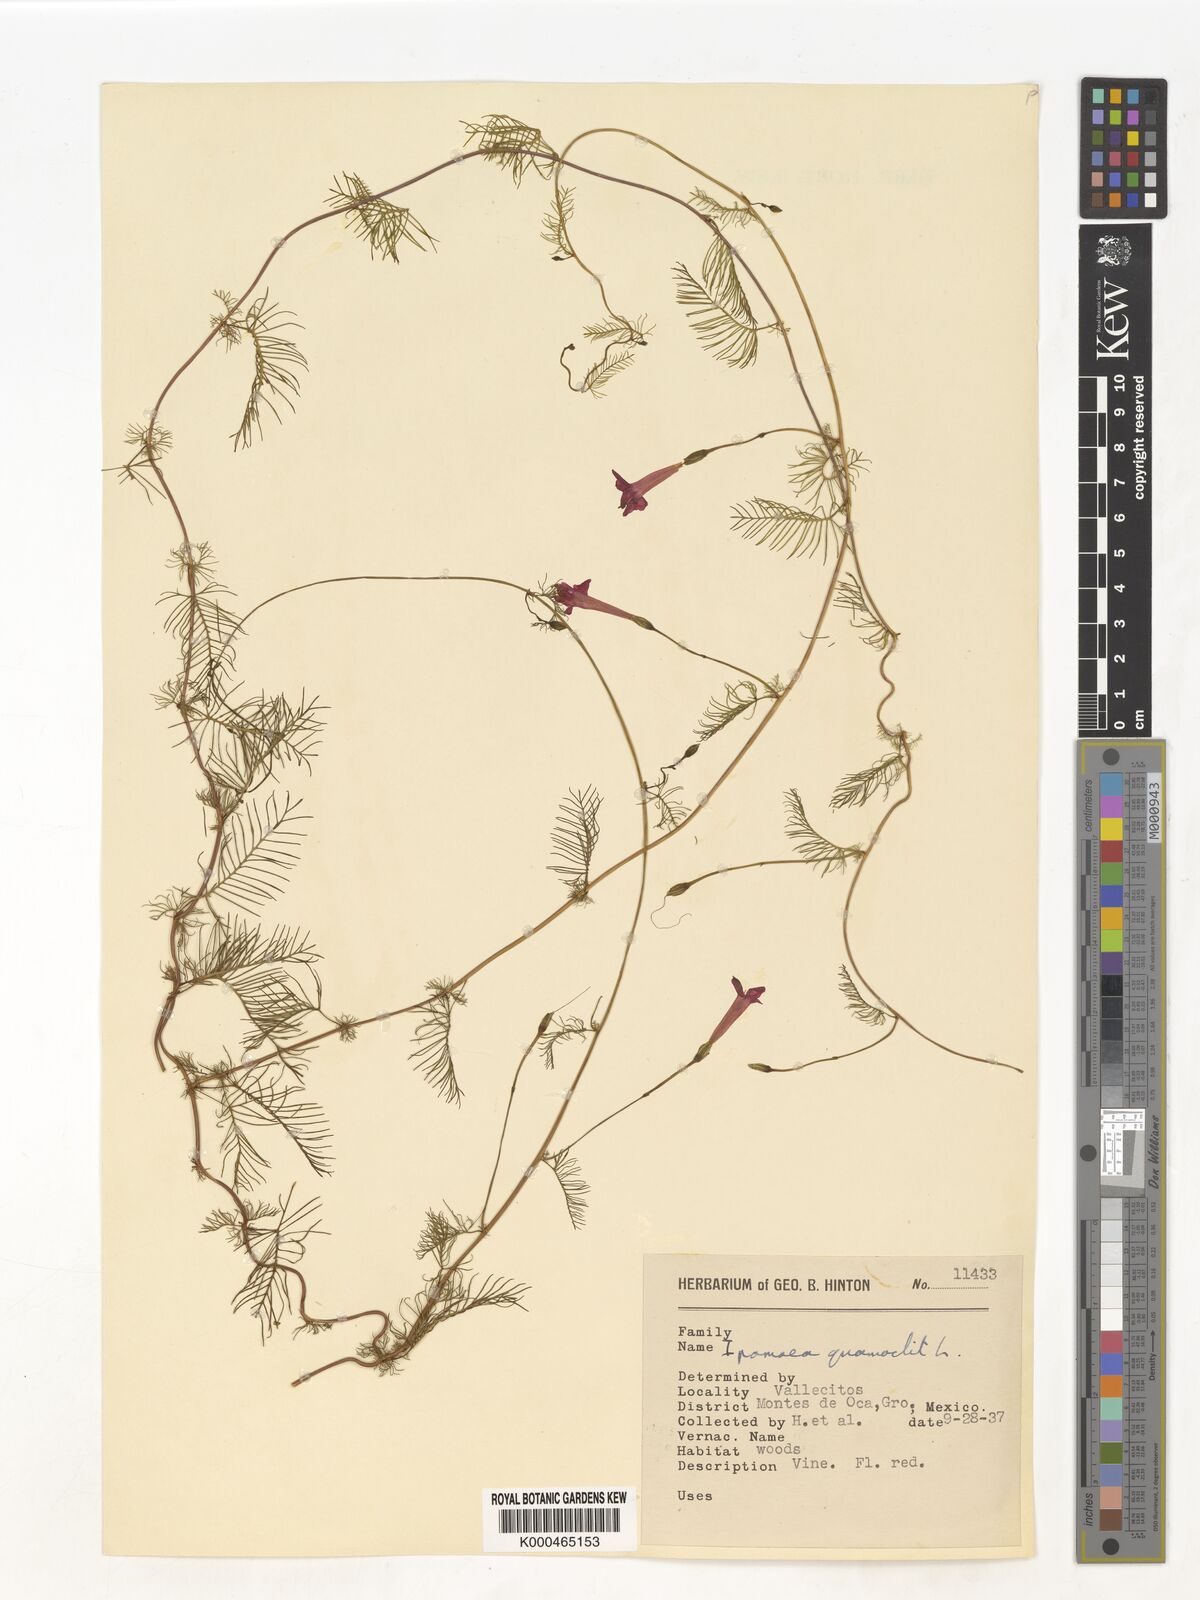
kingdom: Plantae
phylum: Tracheophyta
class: Magnoliopsida
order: Solanales
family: Convolvulaceae
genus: Ipomoea
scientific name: Ipomoea quamoclit
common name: Cypress vine
